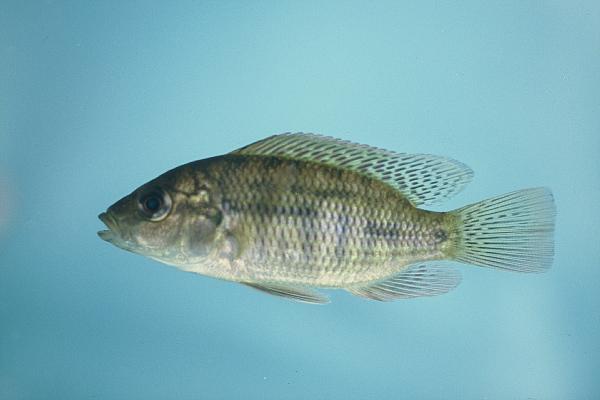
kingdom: Animalia
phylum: Chordata
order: Perciformes
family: Cichlidae
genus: Pharyngochromis
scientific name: Pharyngochromis acuticeps
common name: Zambezi happy
